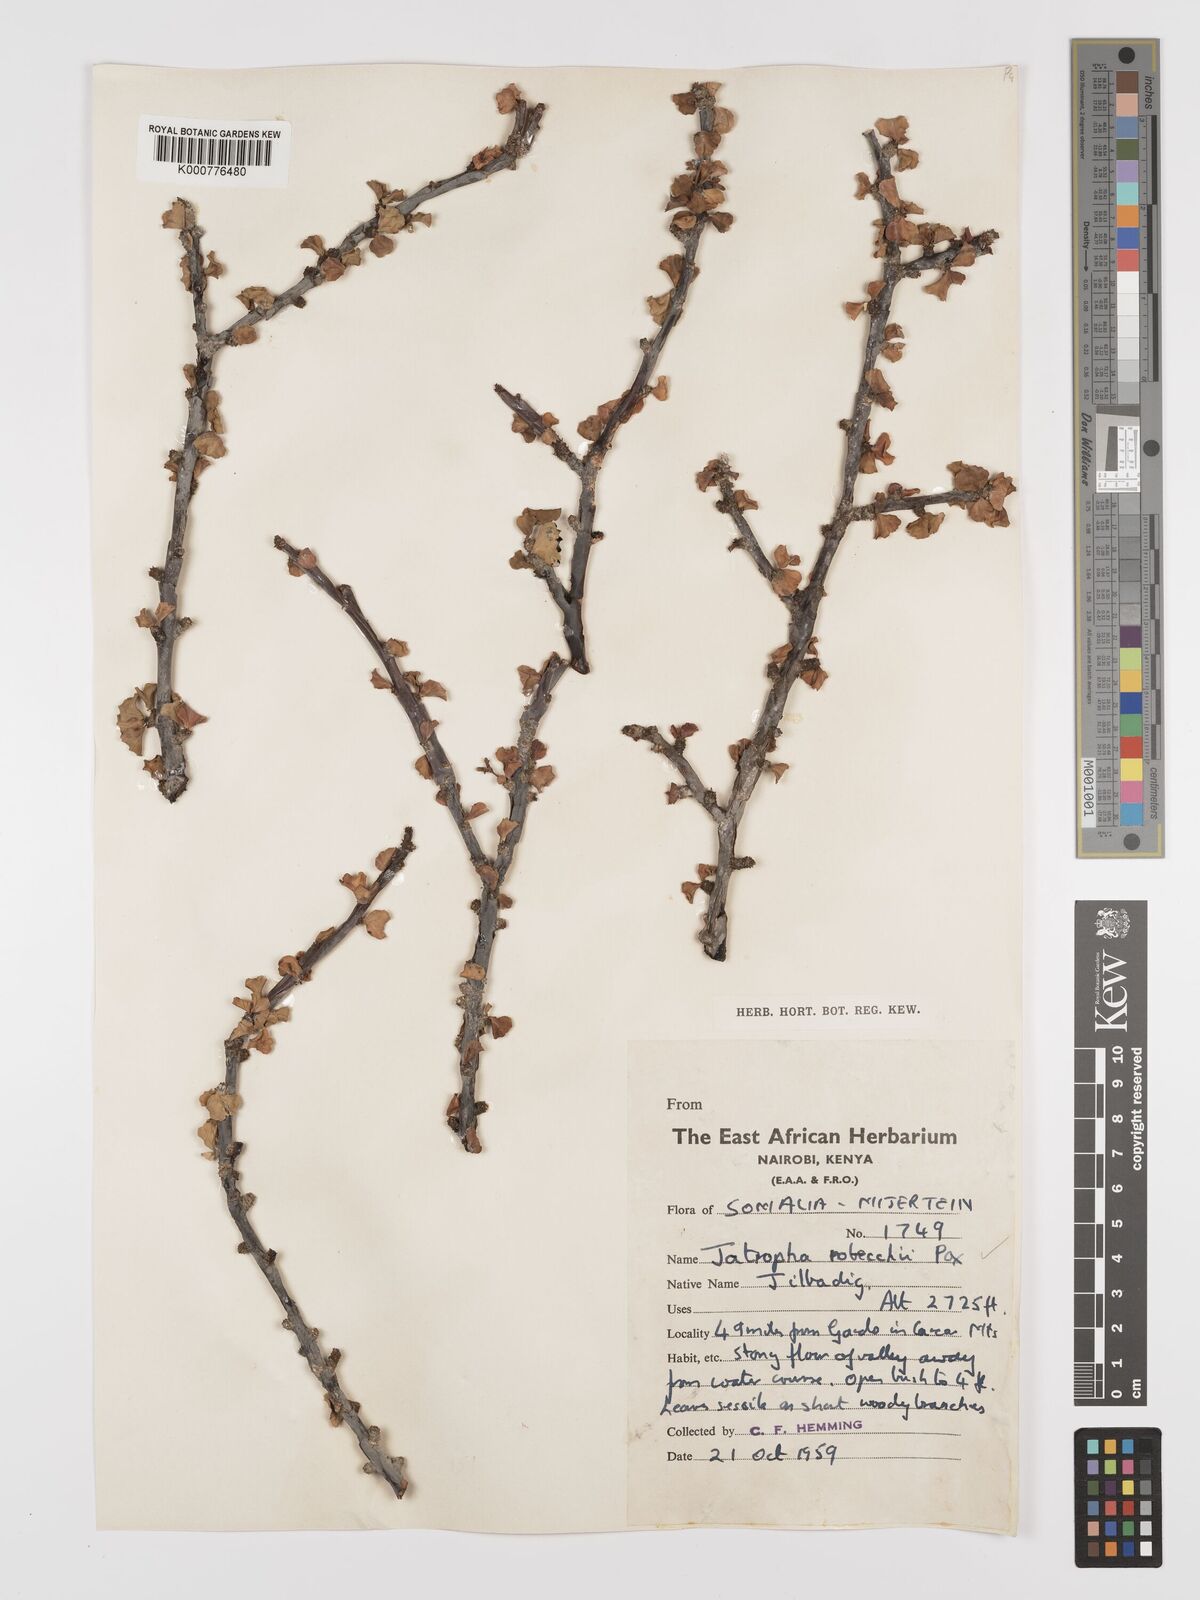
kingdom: Plantae
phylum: Tracheophyta
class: Magnoliopsida
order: Malpighiales
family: Euphorbiaceae
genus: Jatropha
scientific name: Jatropha robecchii
